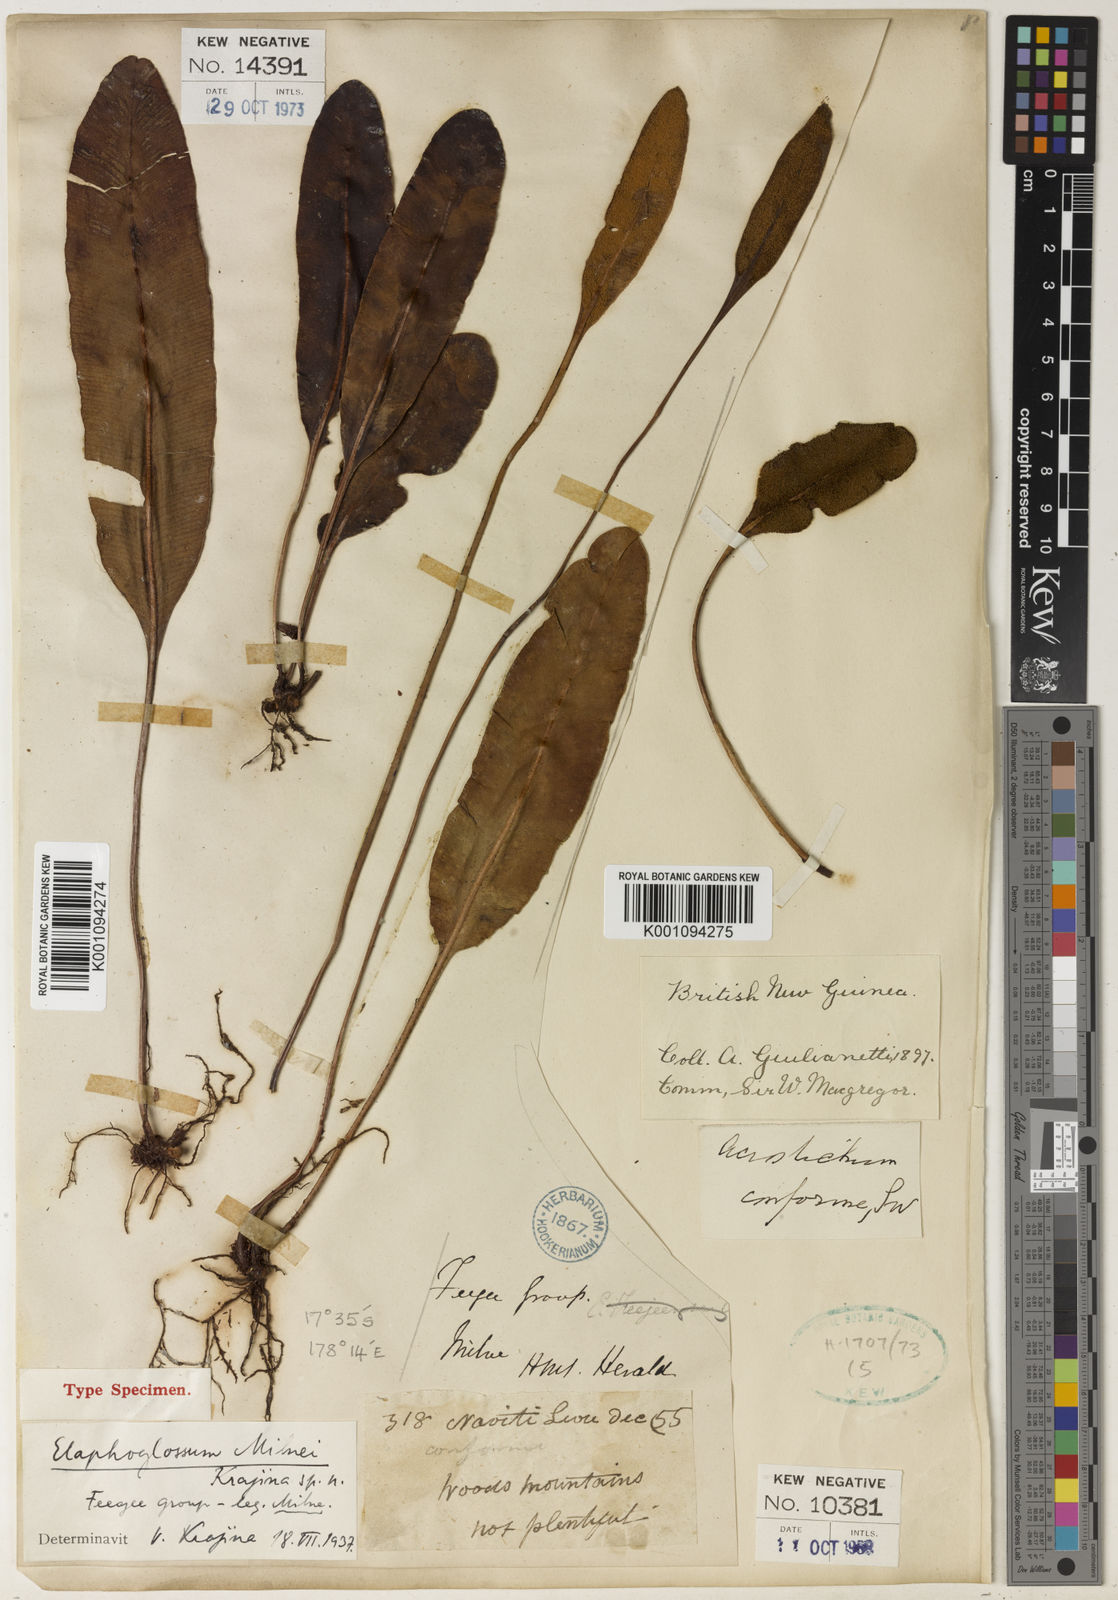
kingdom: Plantae
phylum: Tracheophyta
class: Polypodiopsida
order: Polypodiales
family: Dryopteridaceae
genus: Elaphoglossum
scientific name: Elaphoglossum milnei
